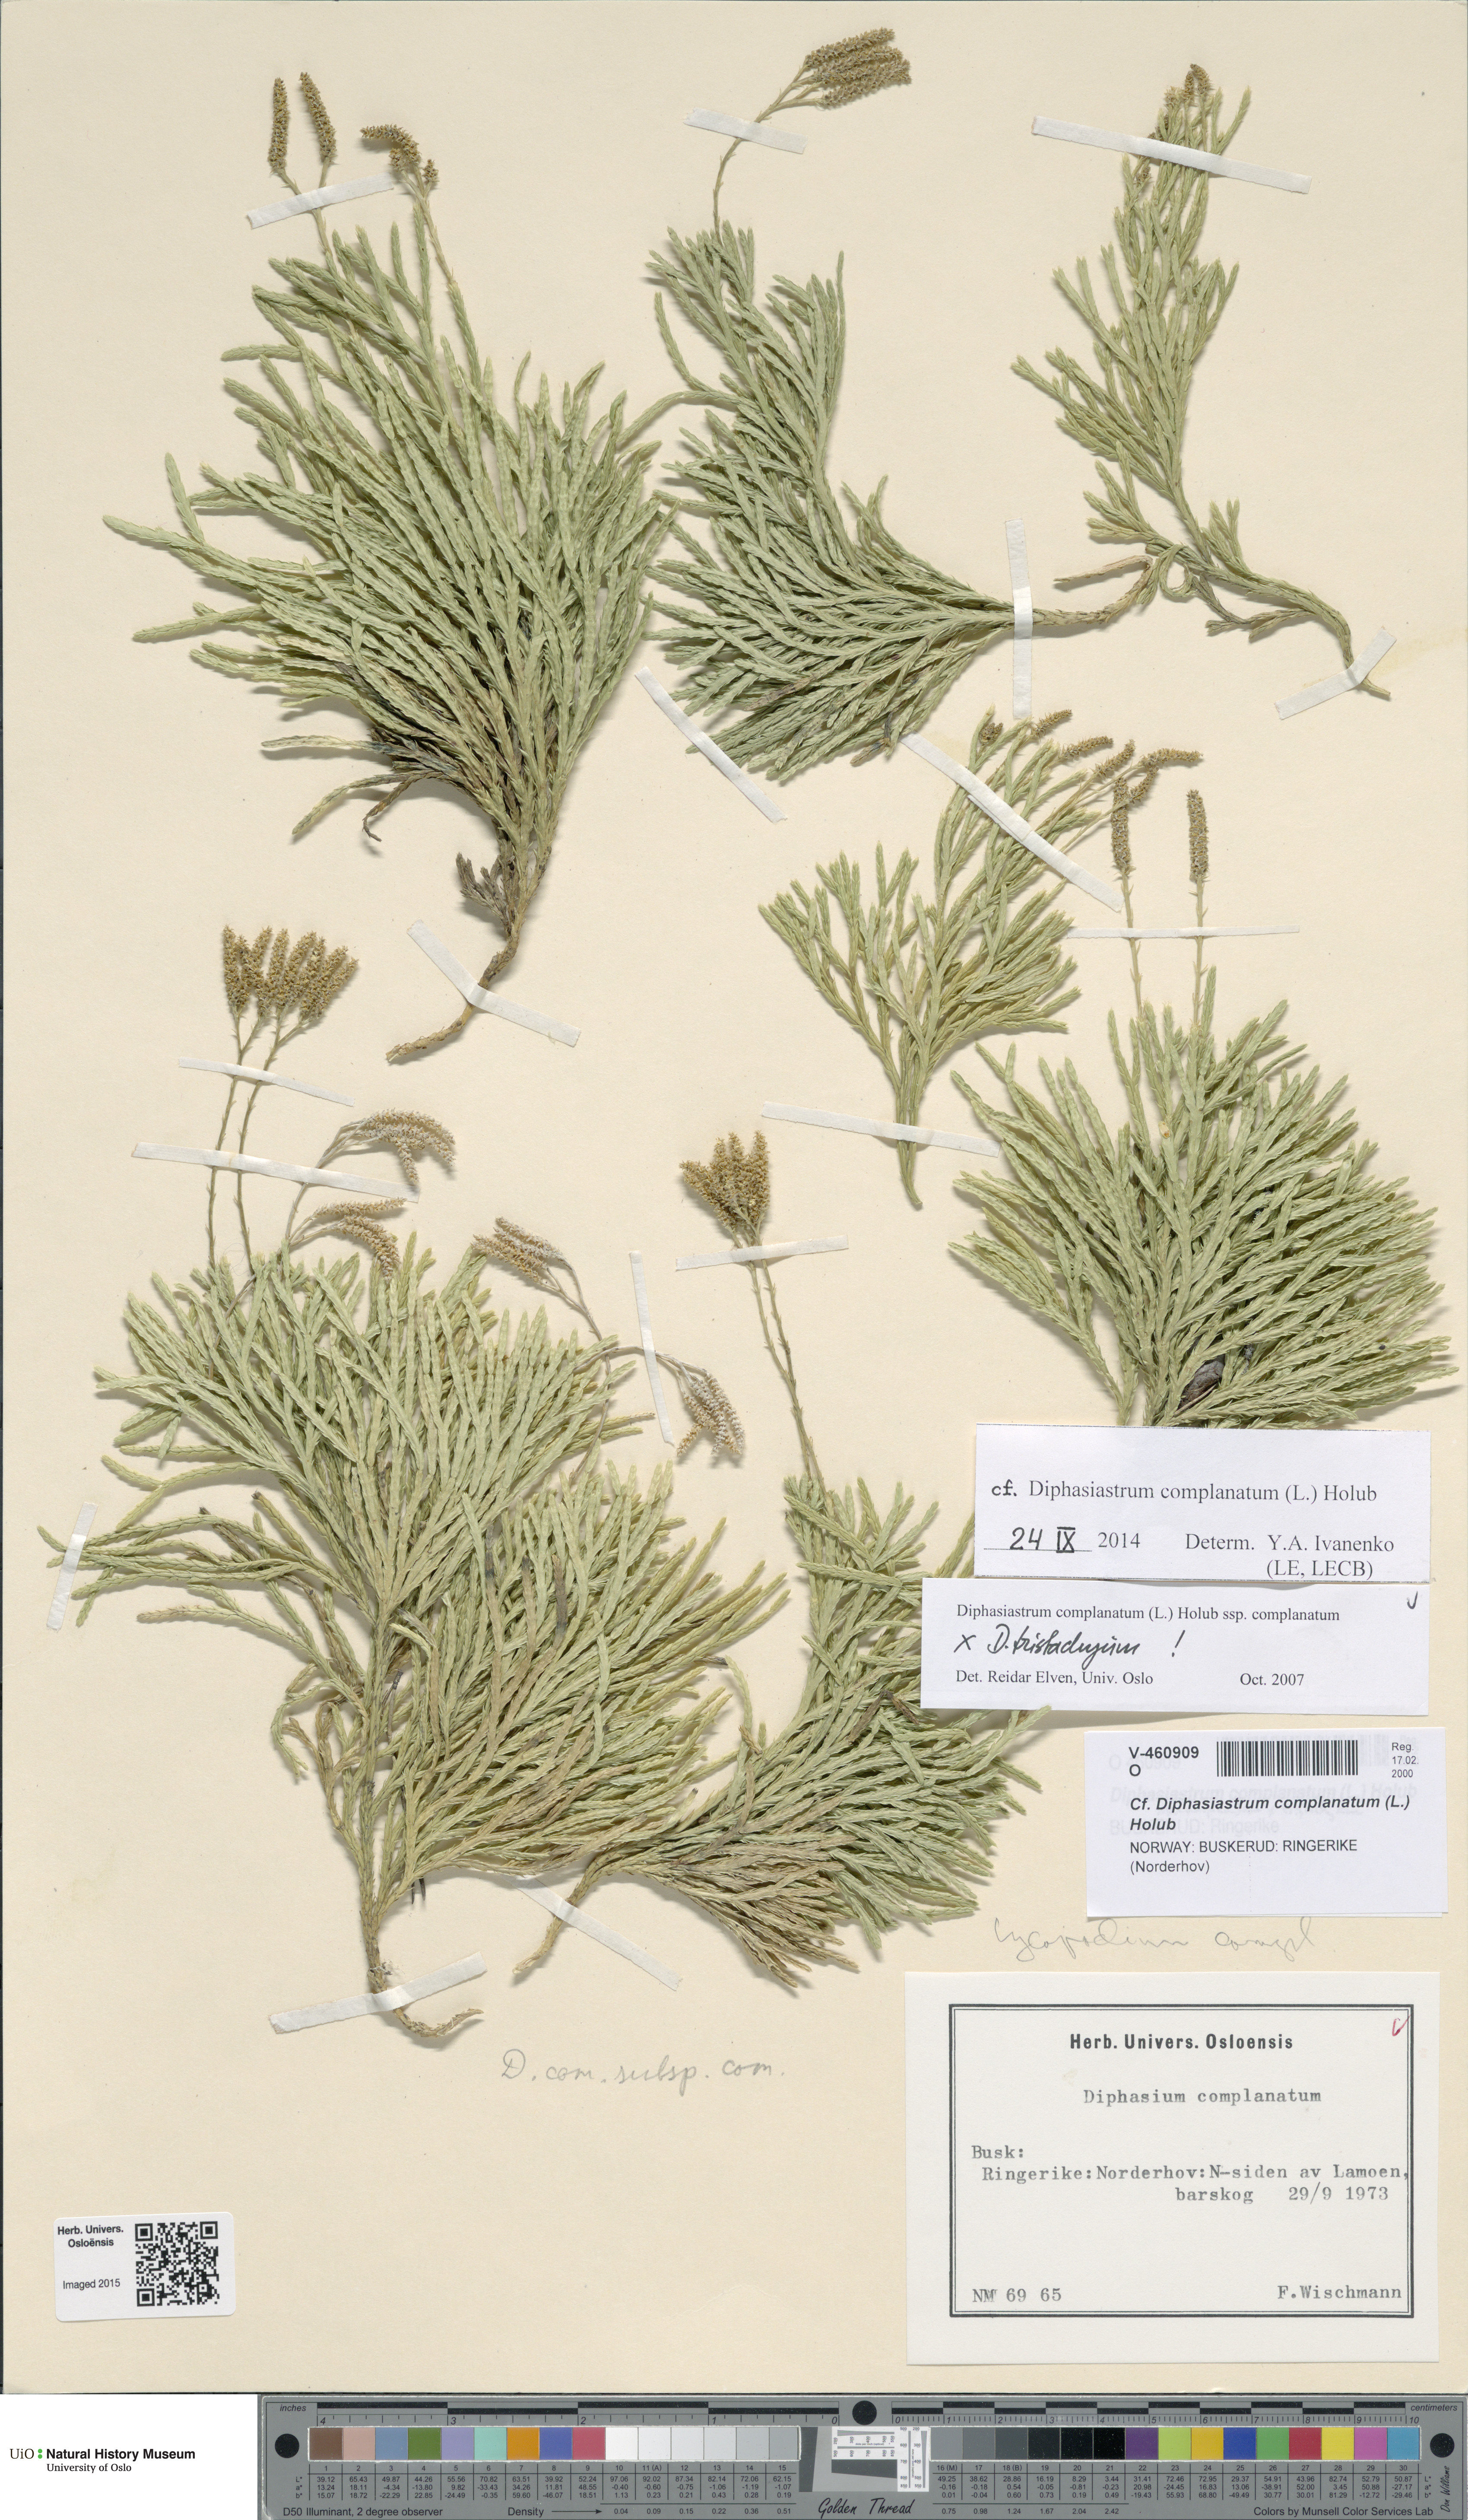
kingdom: Plantae
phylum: Tracheophyta
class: Lycopodiopsida
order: Lycopodiales
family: Lycopodiaceae
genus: Diphasiastrum
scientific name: Diphasiastrum complanatum
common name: Northern running-pine
